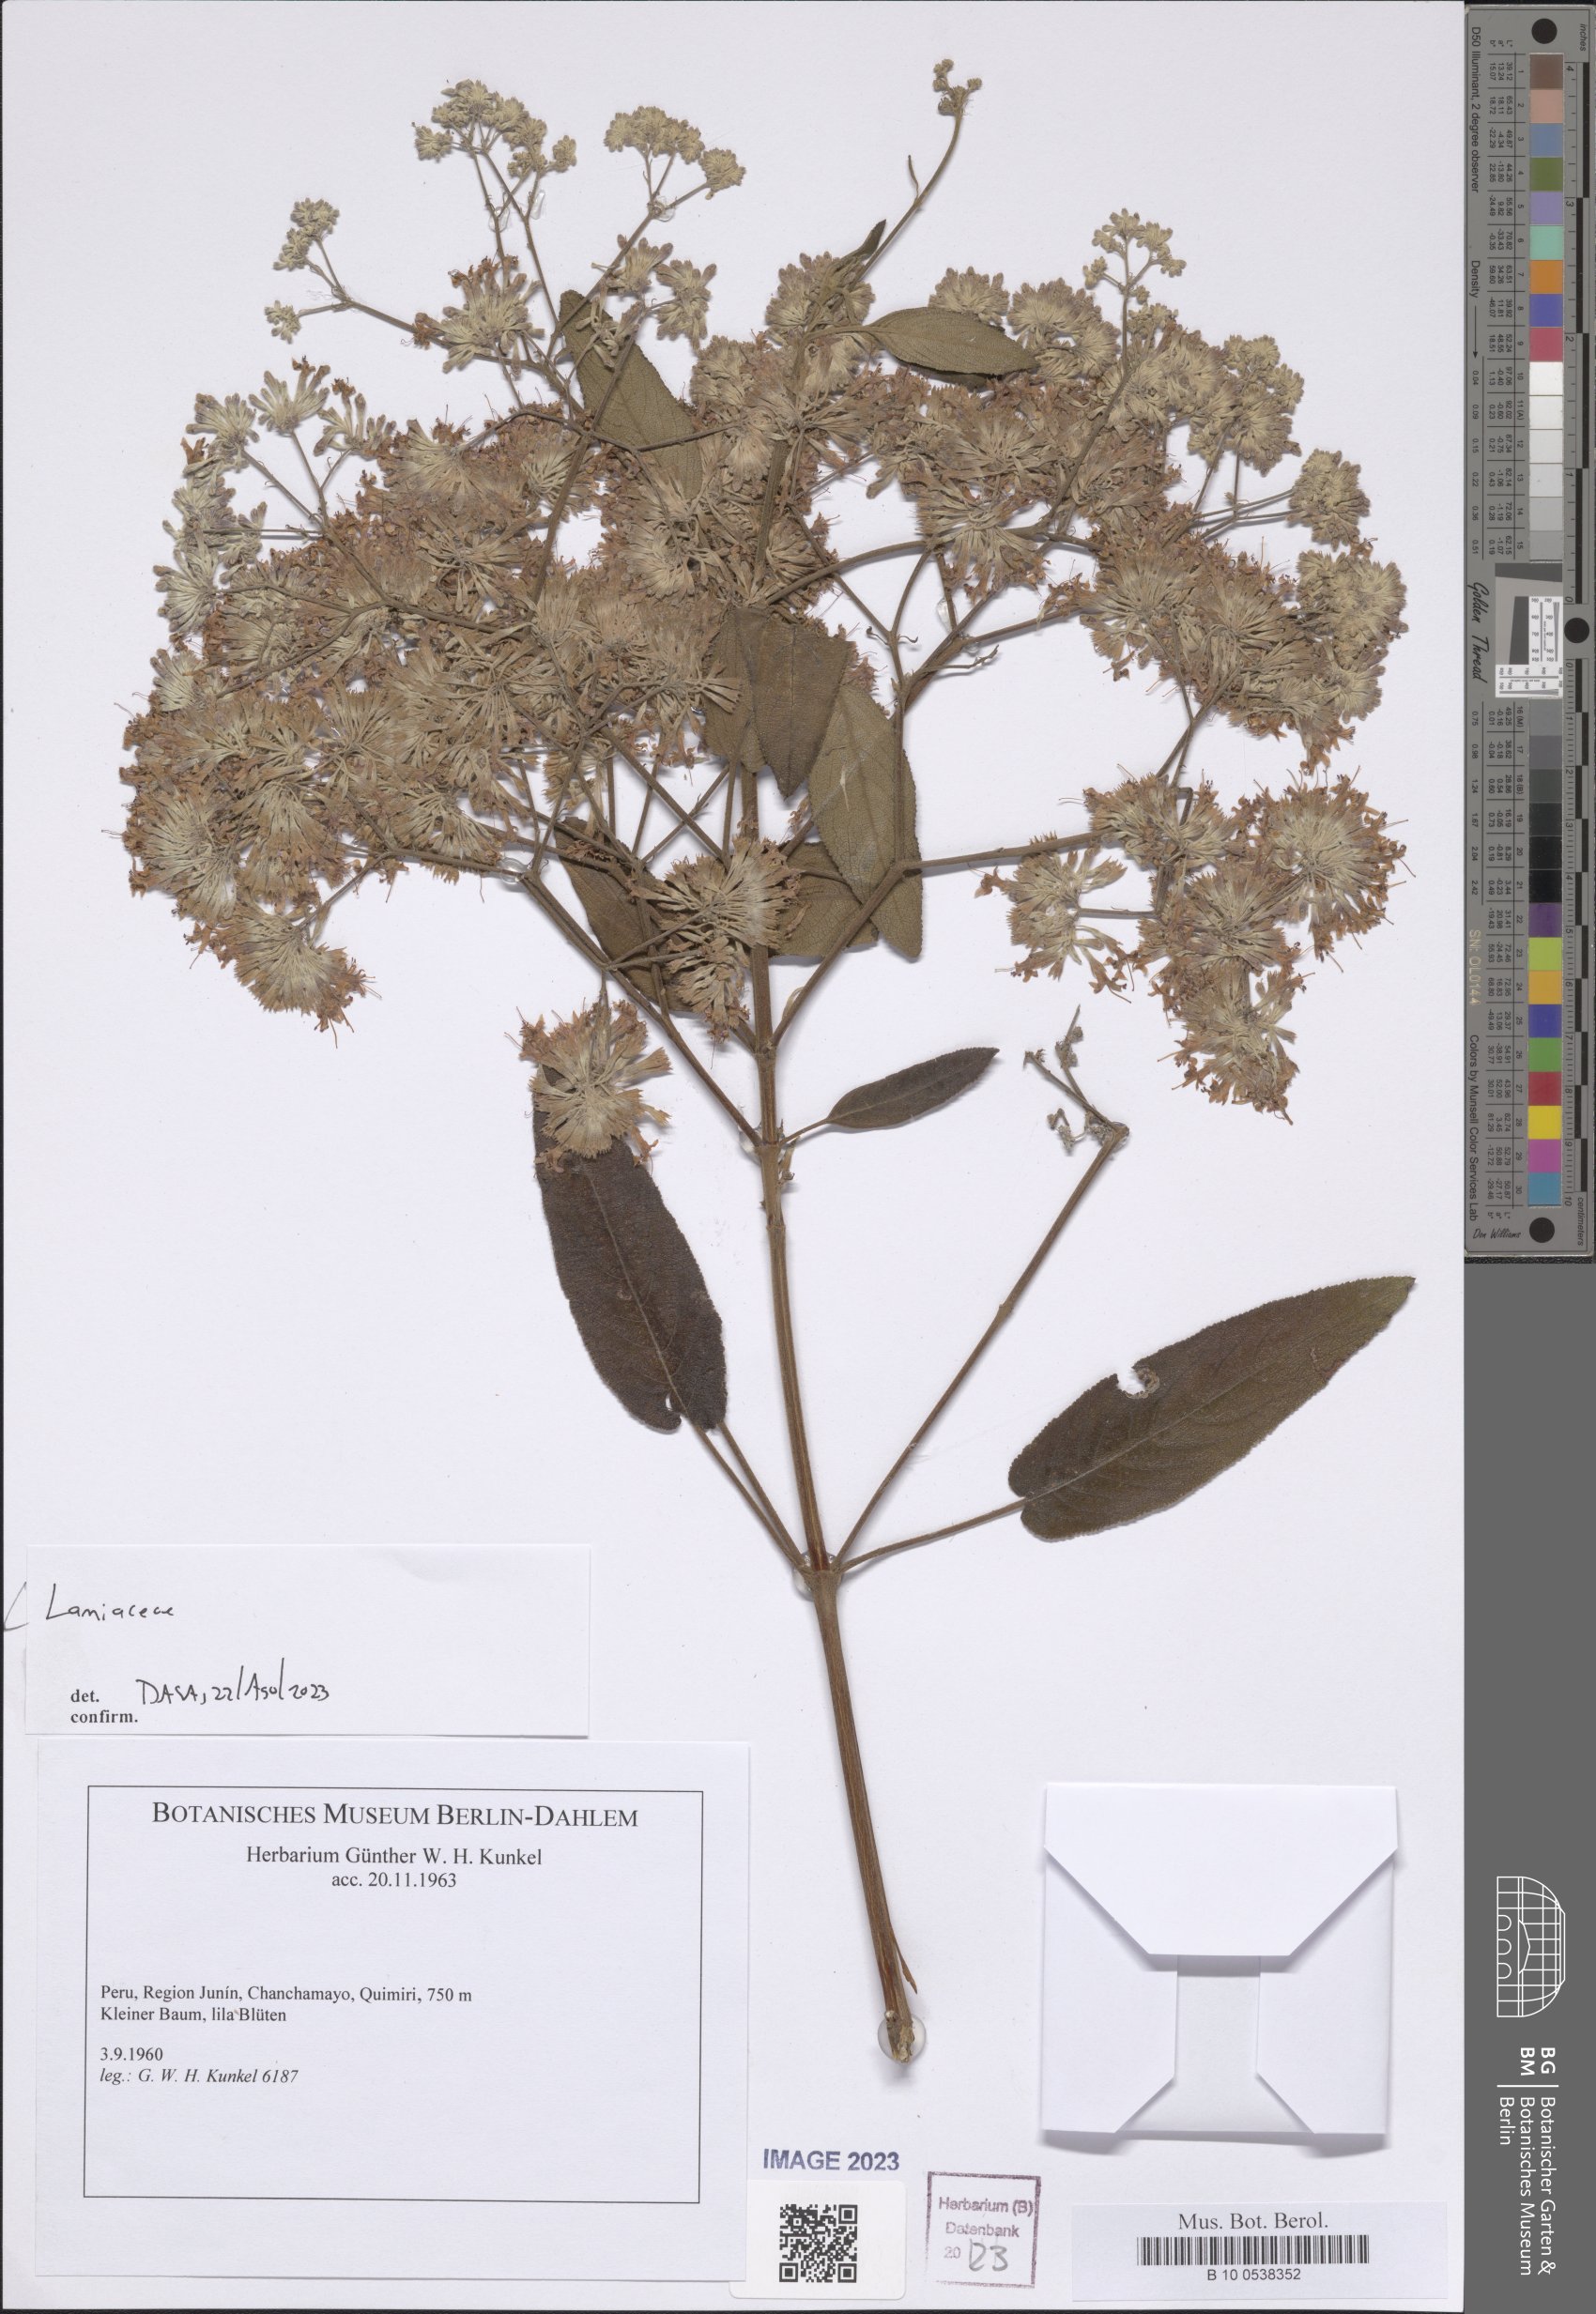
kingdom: Plantae
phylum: Tracheophyta
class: Magnoliopsida
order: Lamiales
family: Lamiaceae
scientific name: Lamiaceae
